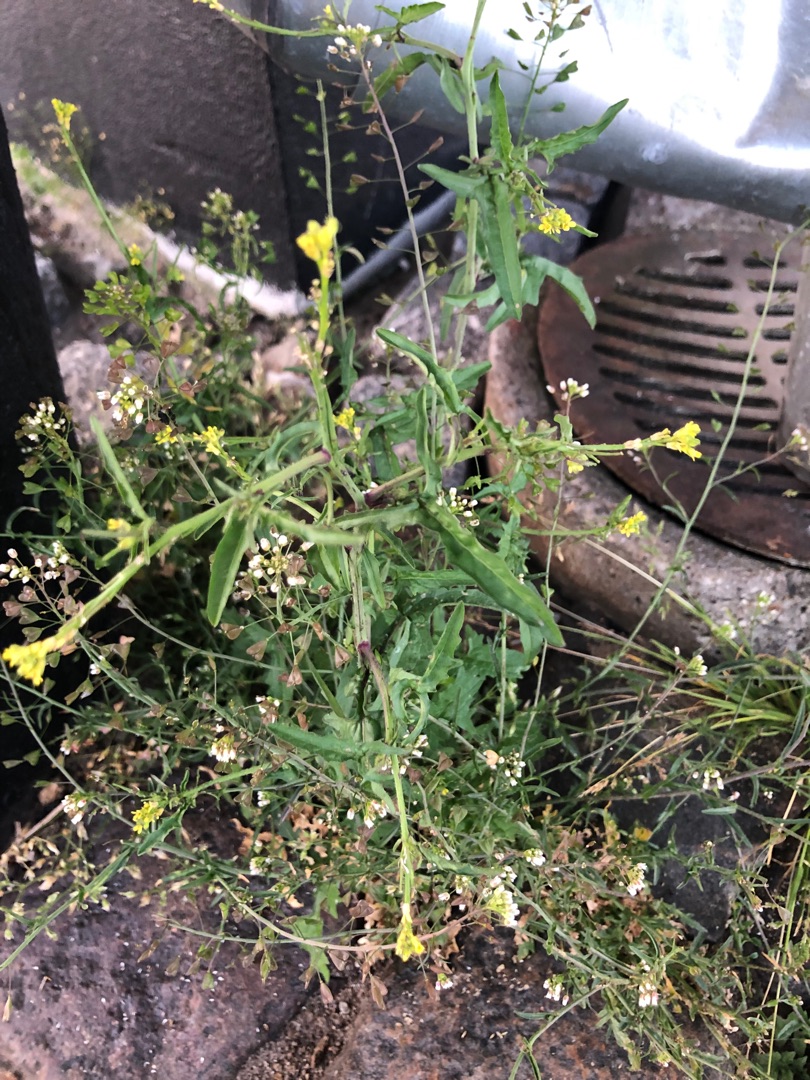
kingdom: Plantae
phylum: Tracheophyta
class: Magnoliopsida
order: Brassicales
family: Brassicaceae
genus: Sisymbrium
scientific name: Sisymbrium officinale
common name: Rank vejsennep
